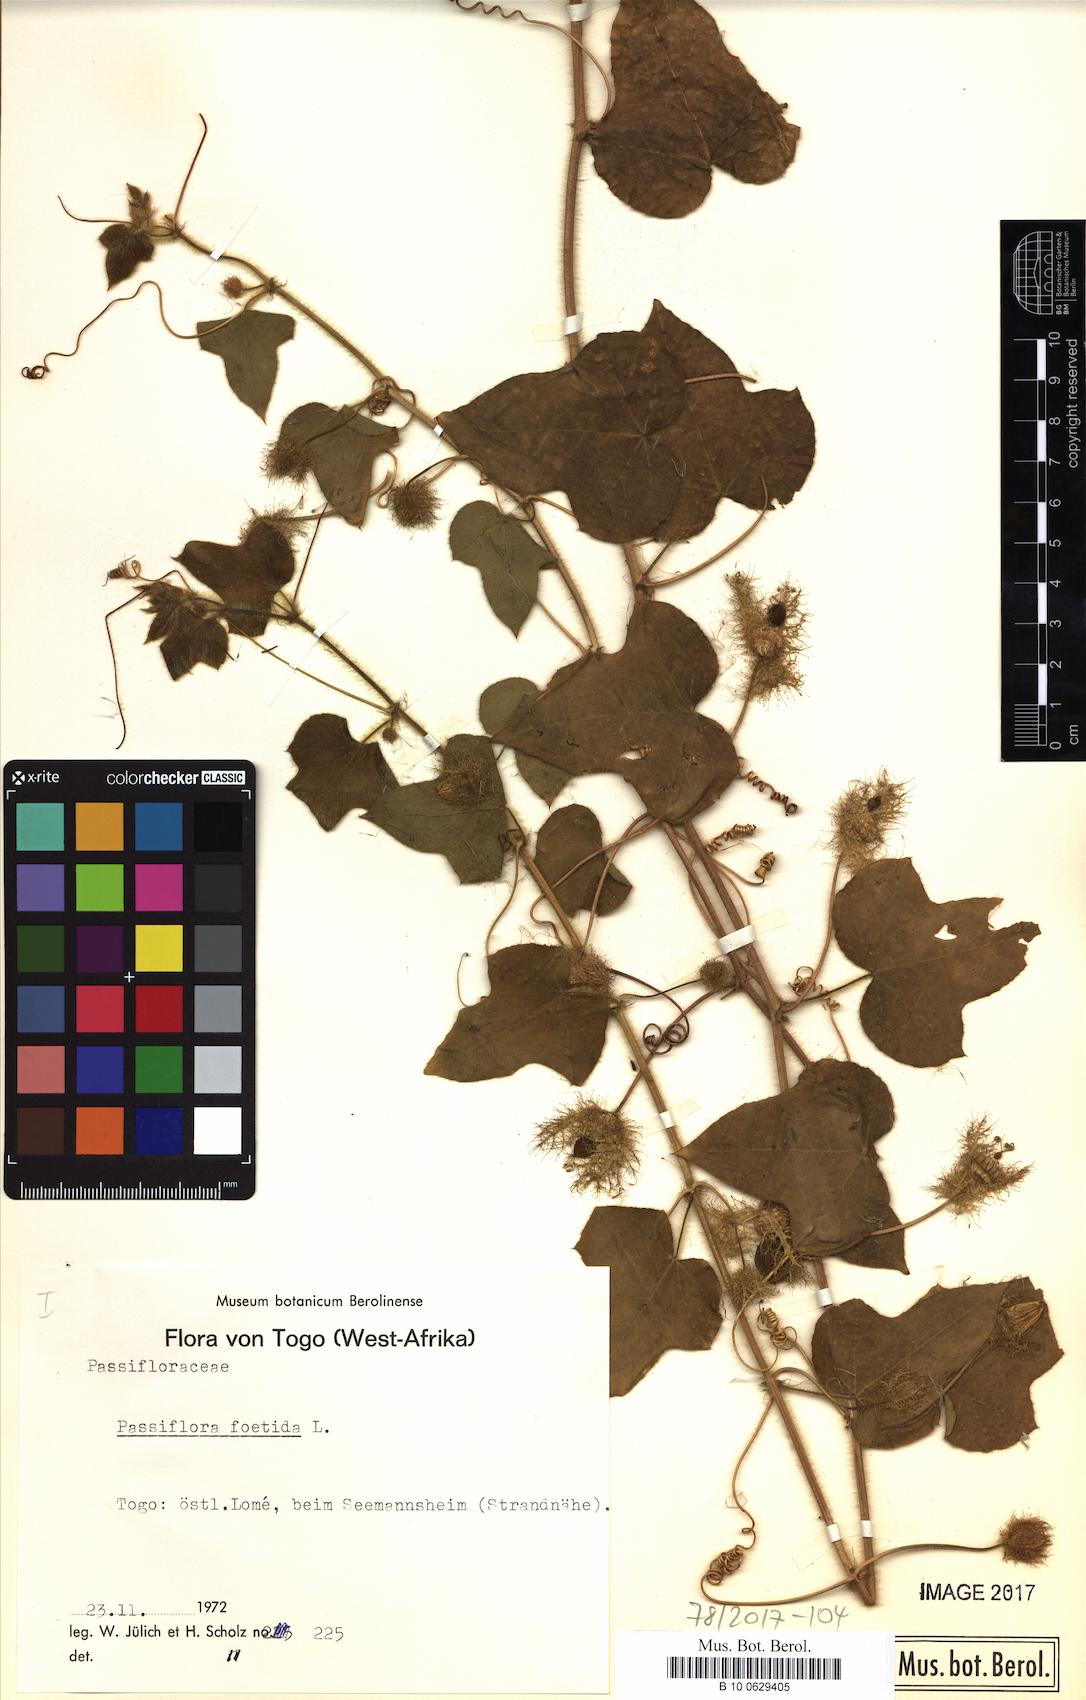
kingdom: Plantae
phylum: Tracheophyta
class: Magnoliopsida
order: Malpighiales
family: Passifloraceae
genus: Passiflora
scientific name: Passiflora foetida
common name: Fetid passionflower
